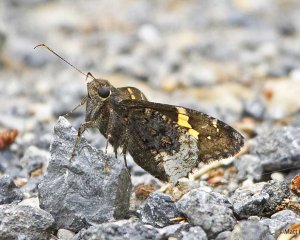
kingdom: Animalia
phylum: Arthropoda
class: Insecta
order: Lepidoptera
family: Hesperiidae
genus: Achalarus
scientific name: Achalarus lyciades
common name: Hoary Edge
